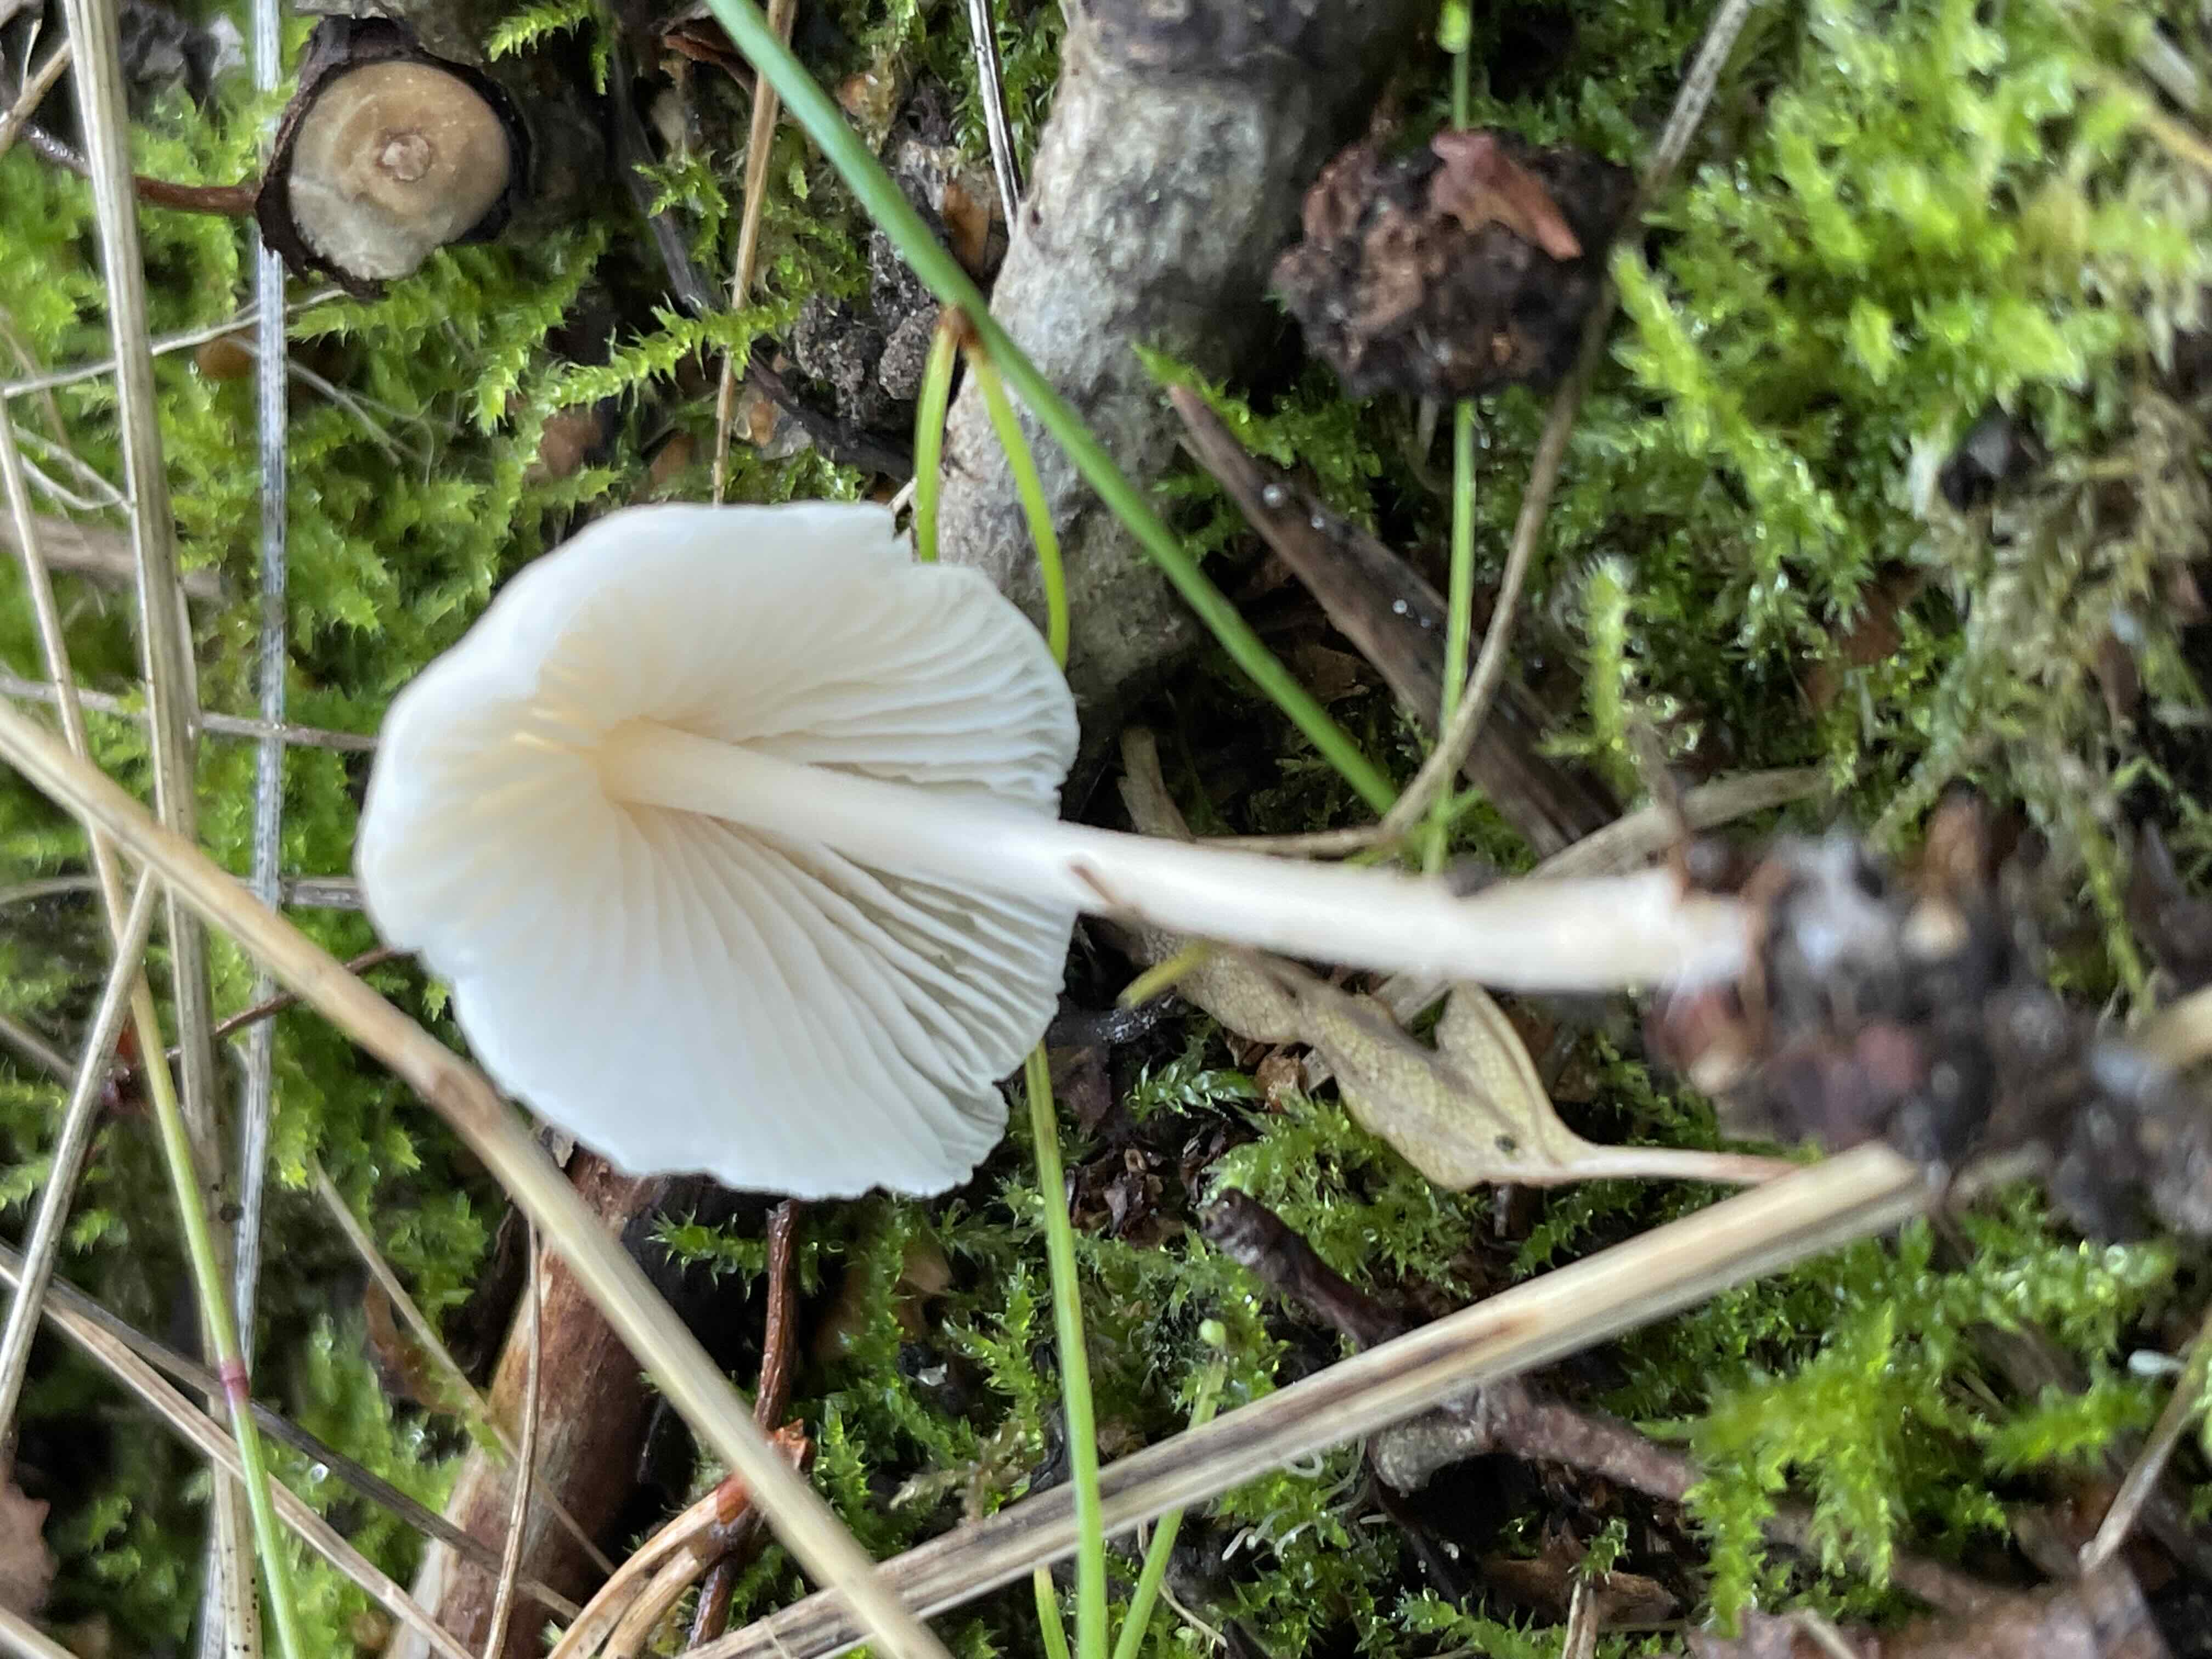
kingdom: Fungi
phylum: Basidiomycota
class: Agaricomycetes
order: Agaricales
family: Mycenaceae
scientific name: Mycenaceae
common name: huesvampfamilien
